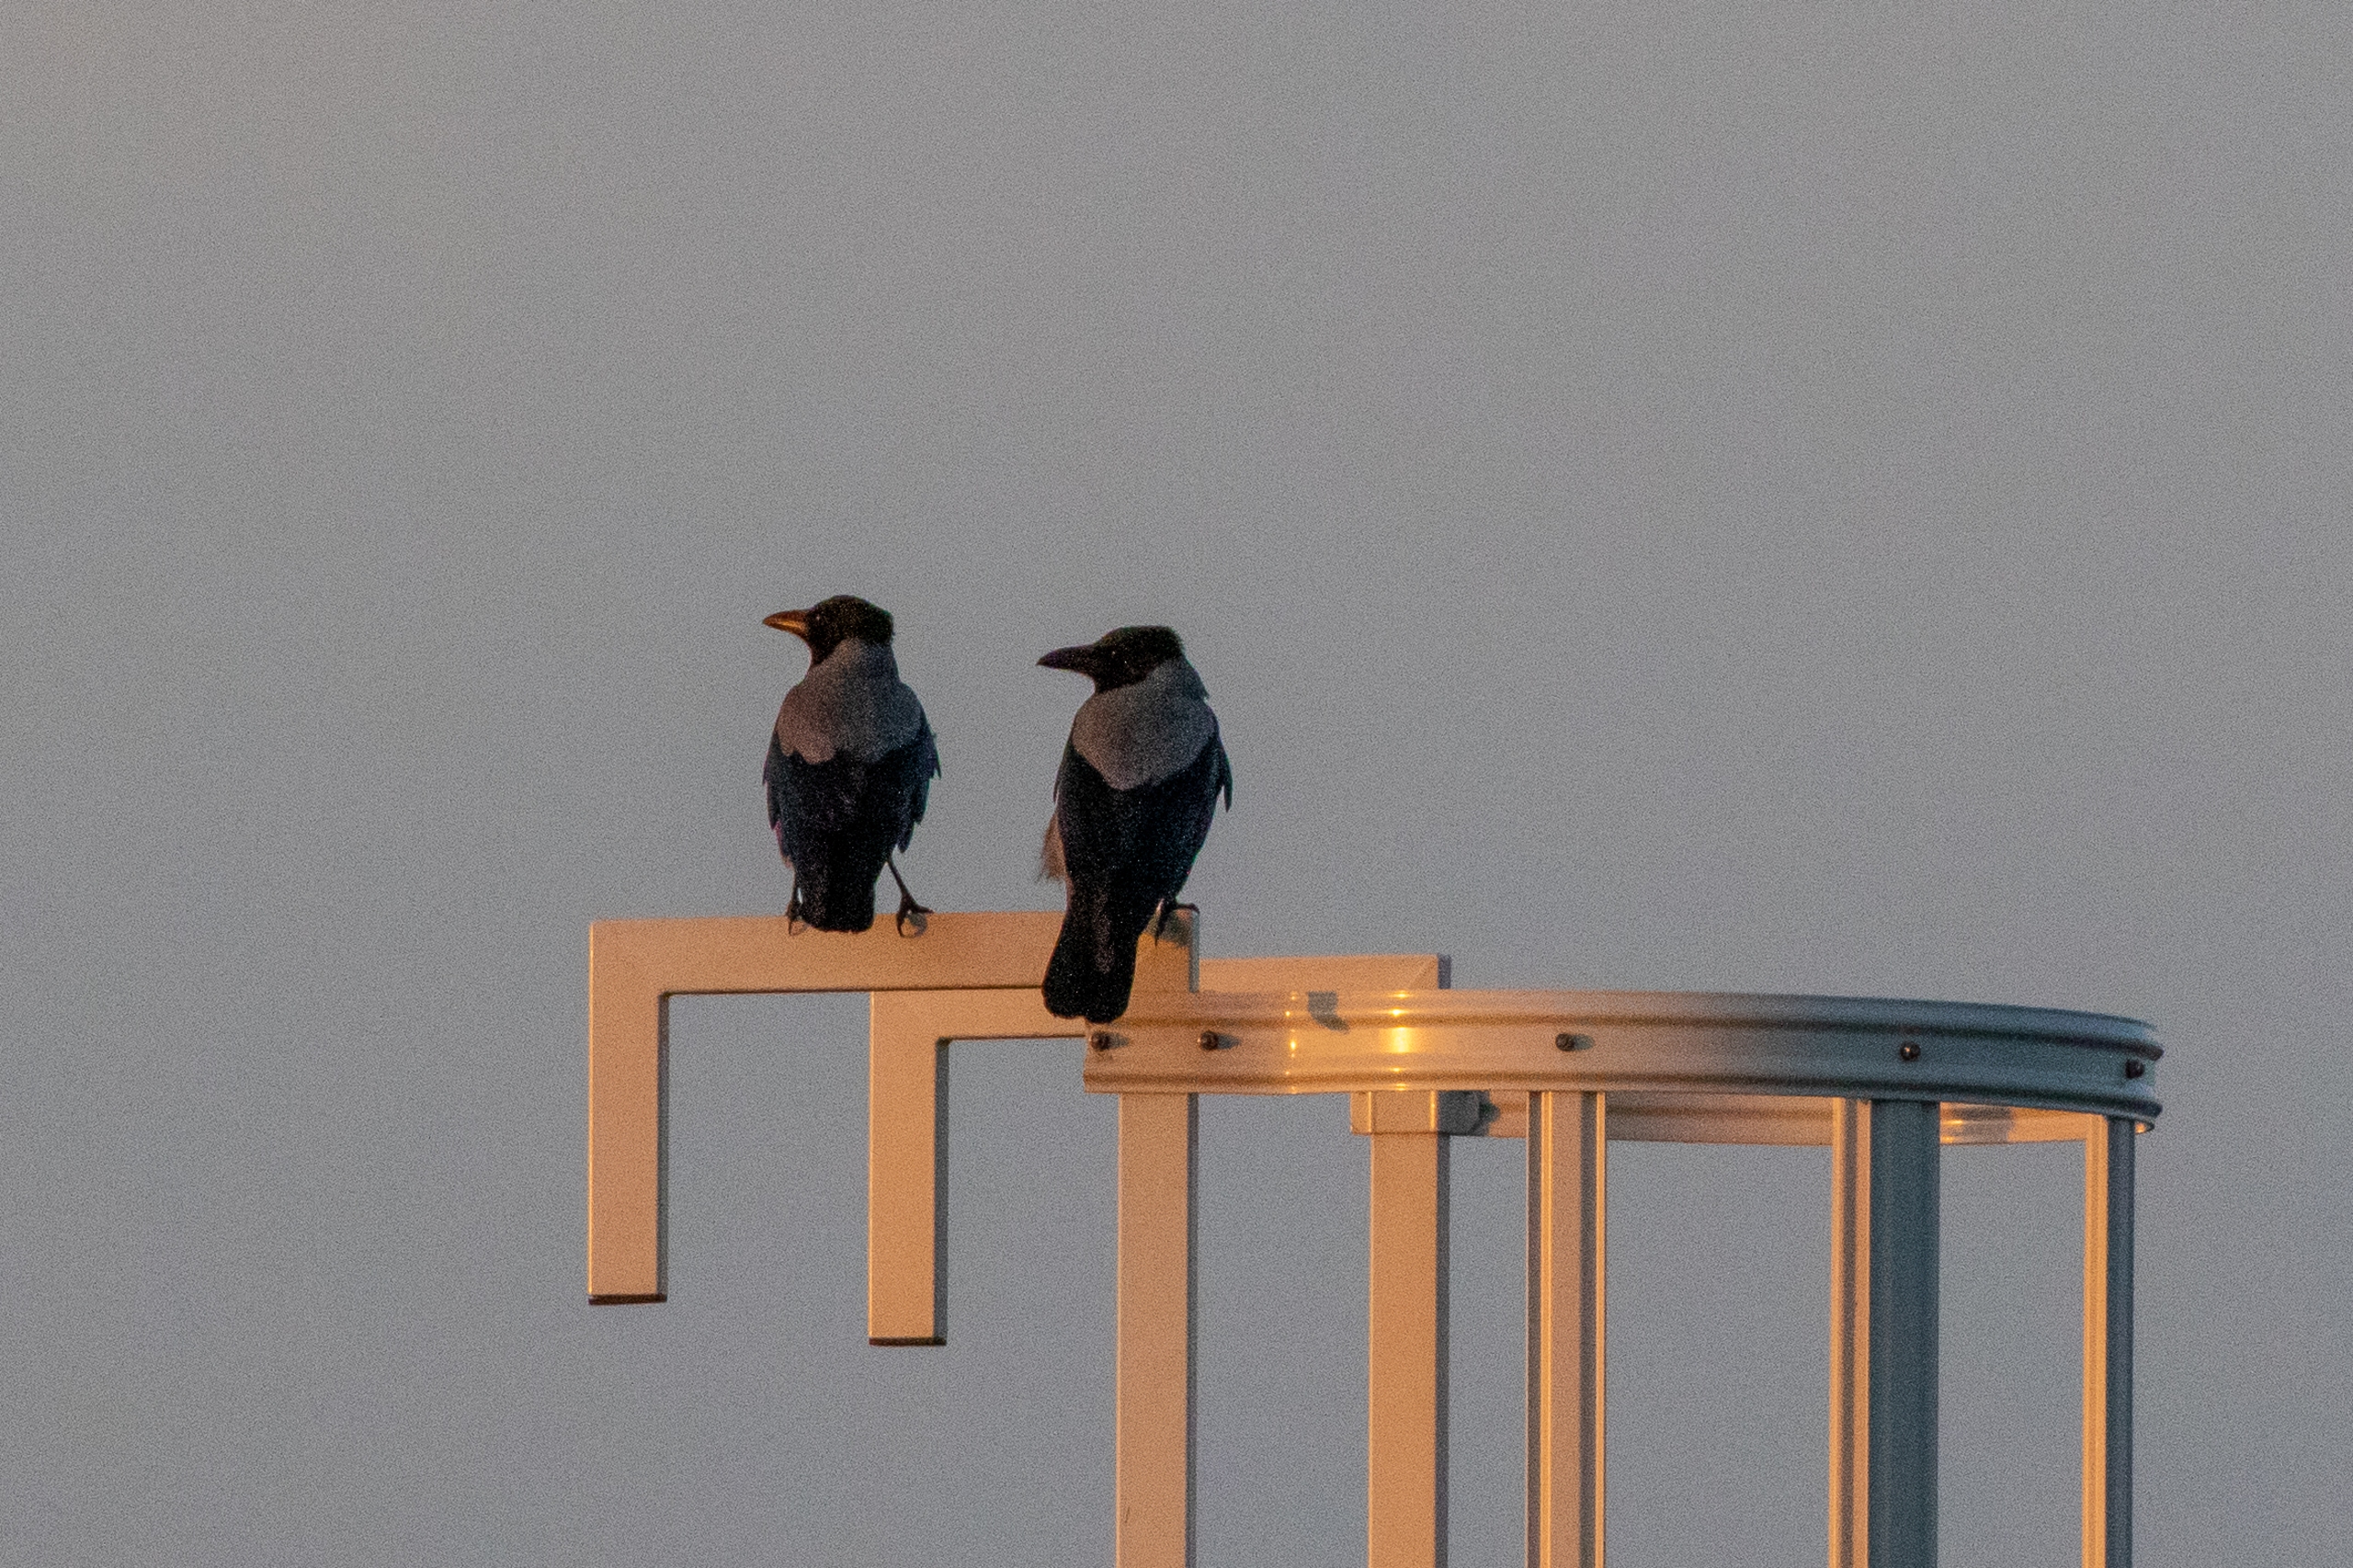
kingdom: Animalia
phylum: Chordata
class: Aves
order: Passeriformes
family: Corvidae
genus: Corvus
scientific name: Corvus cornix
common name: Gråkrage
